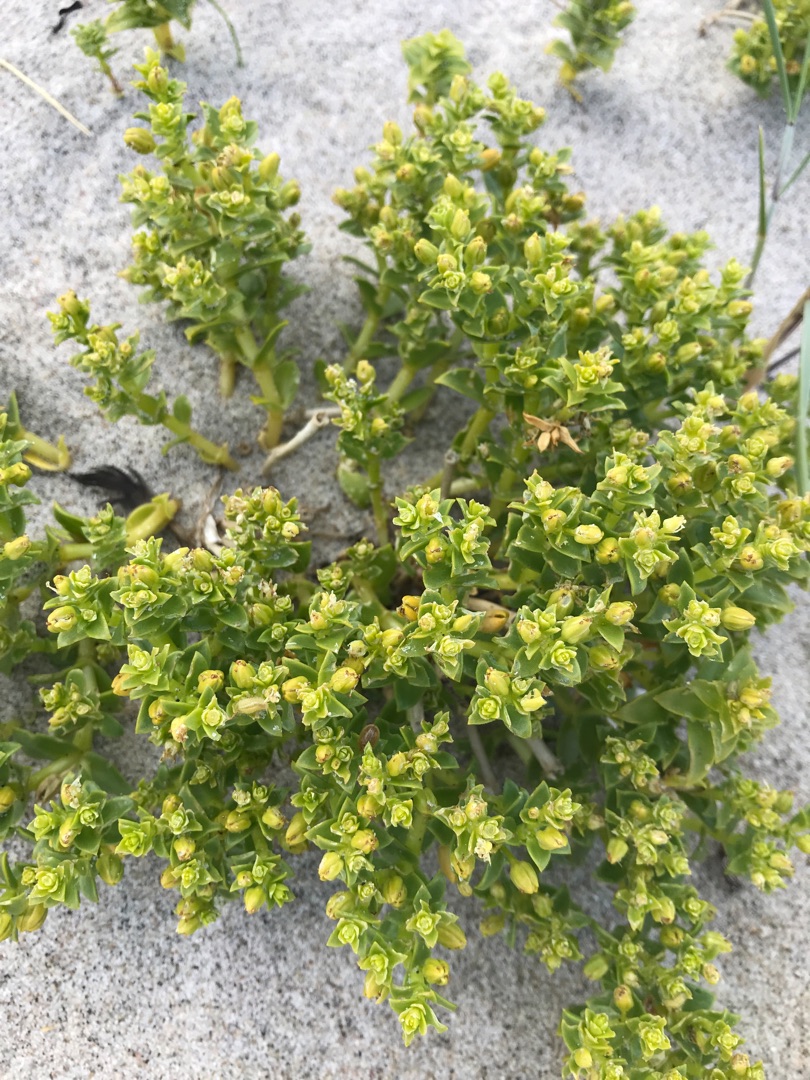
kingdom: Plantae
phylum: Tracheophyta
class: Magnoliopsida
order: Caryophyllales
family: Caryophyllaceae
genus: Honckenya
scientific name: Honckenya peploides
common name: Strandarve
